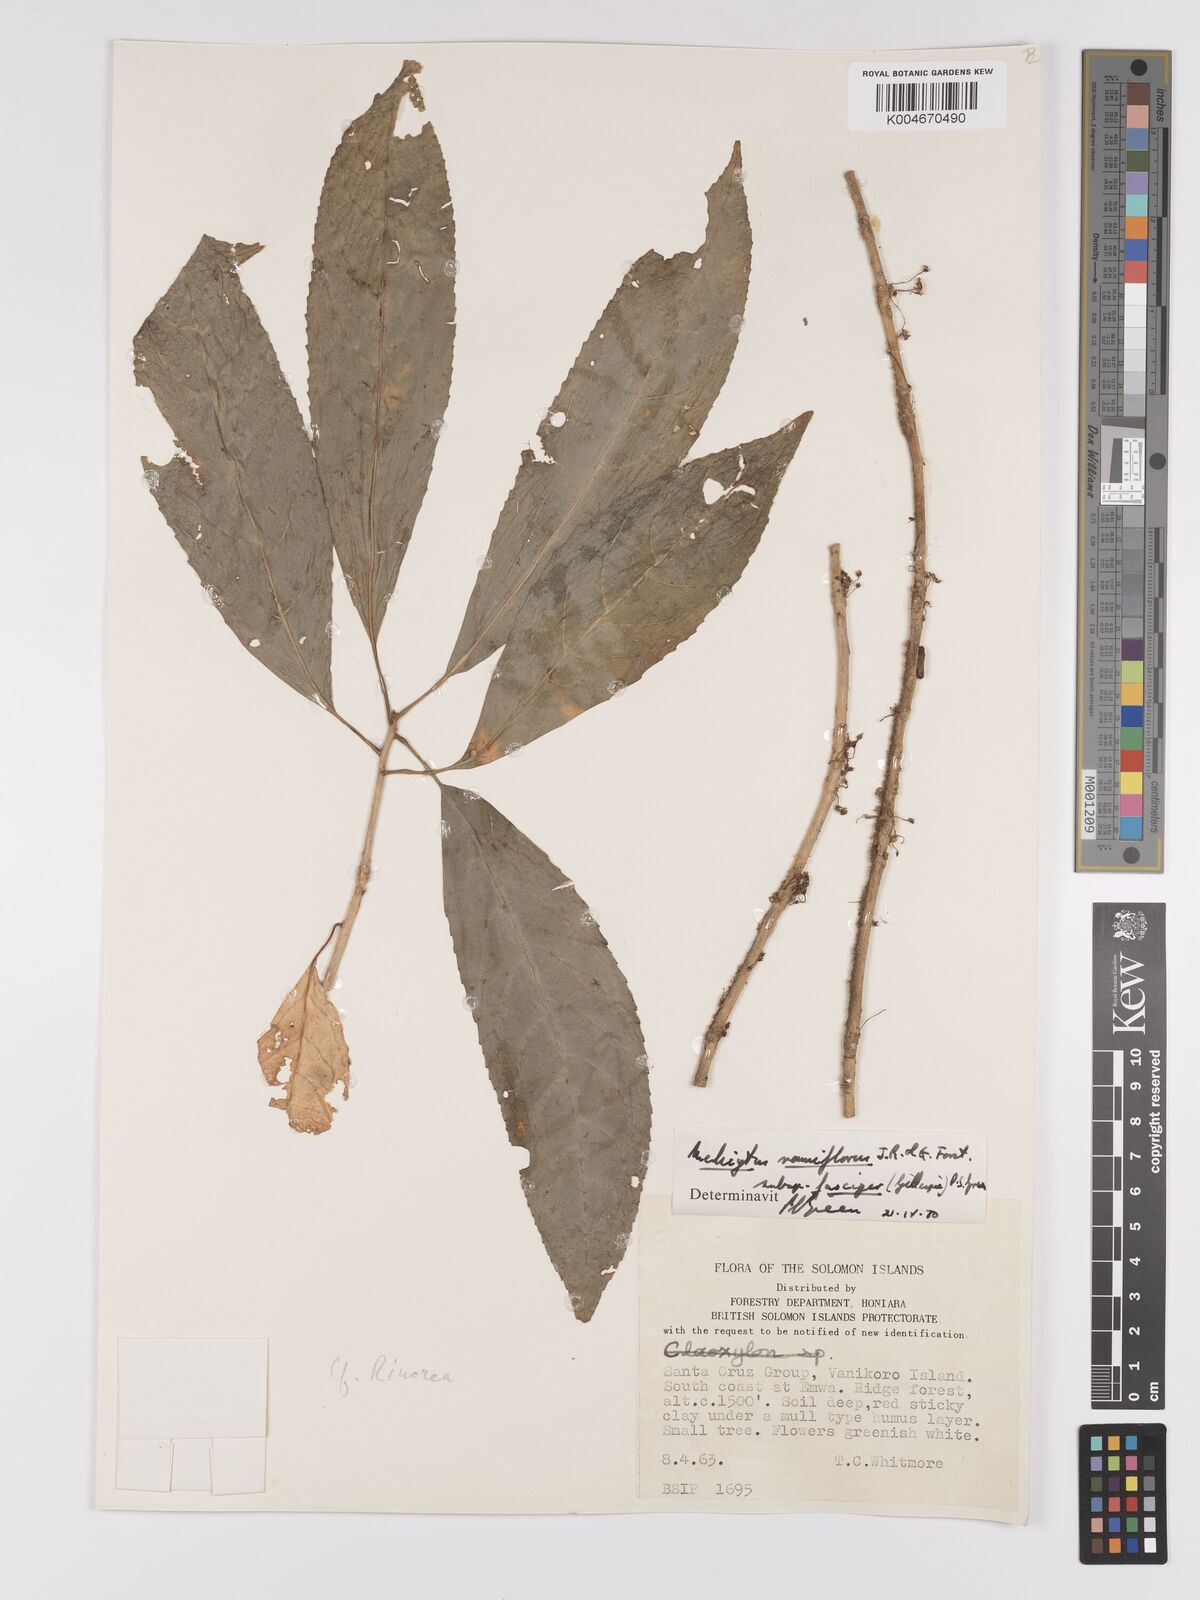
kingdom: Plantae
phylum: Tracheophyta
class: Magnoliopsida
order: Malpighiales
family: Violaceae
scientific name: Violaceae
